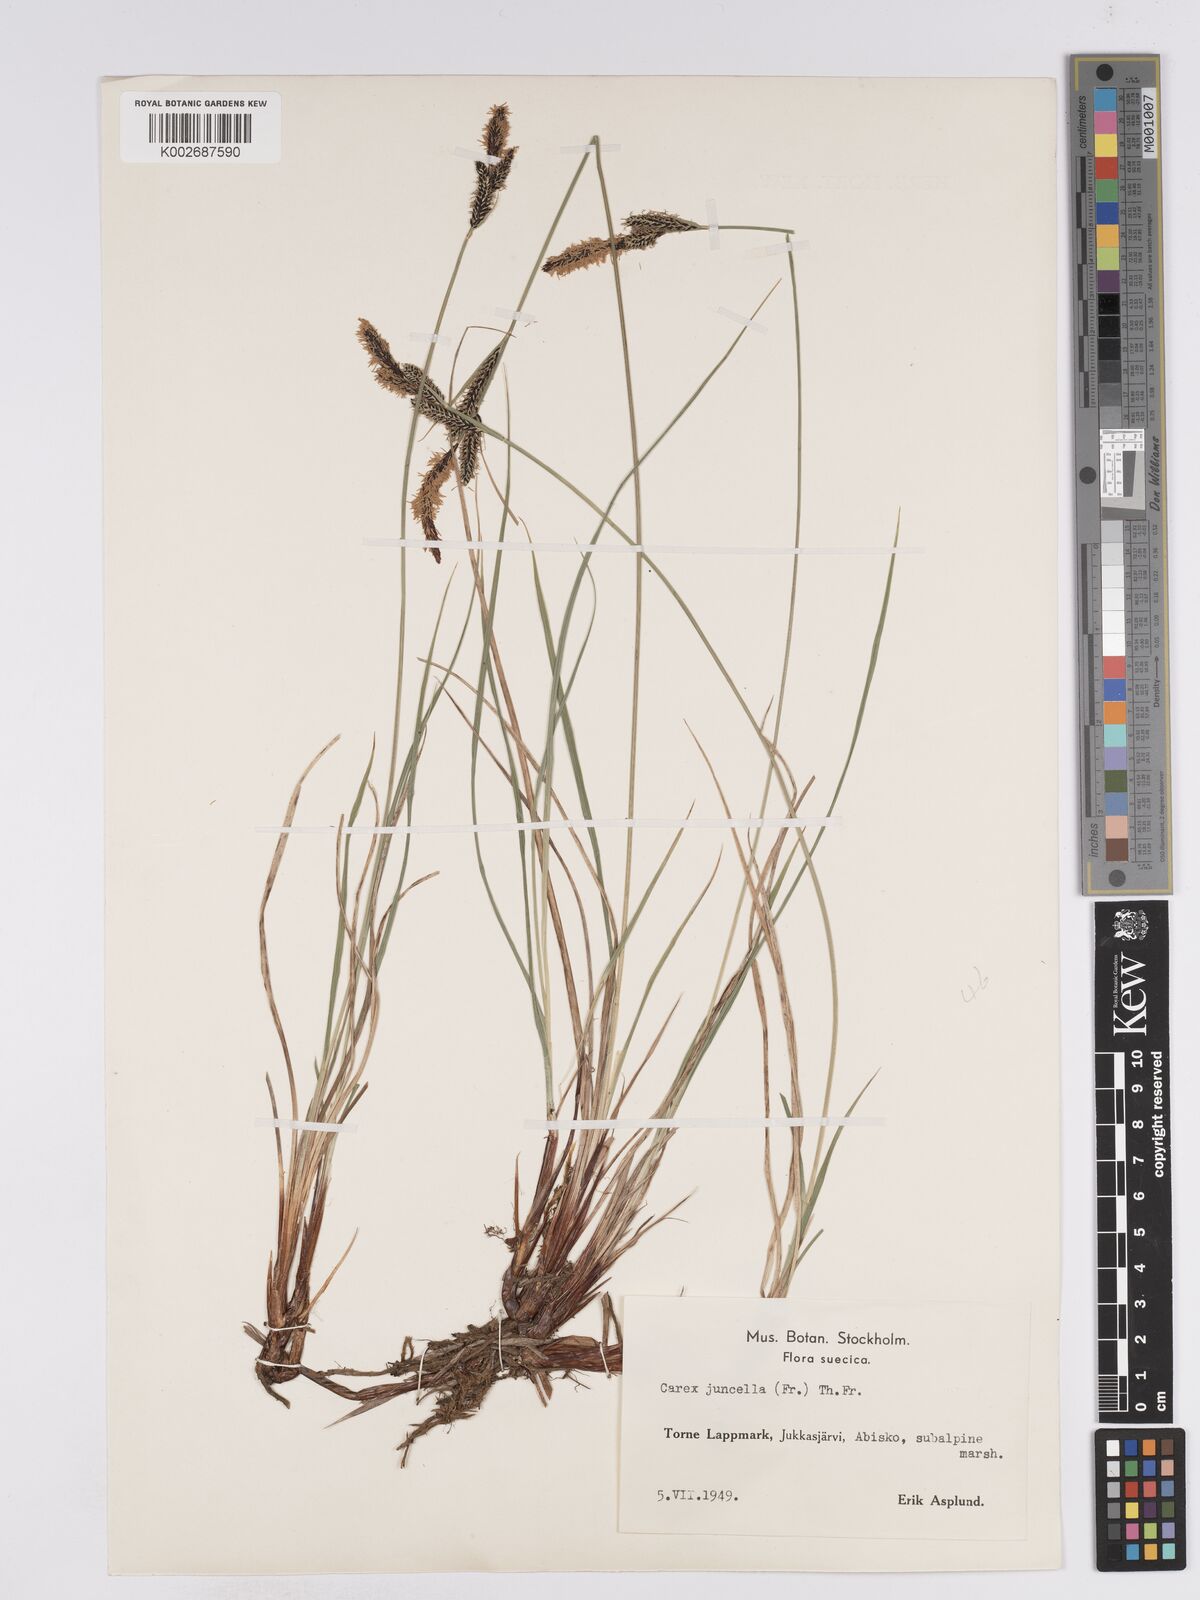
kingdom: Plantae
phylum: Tracheophyta
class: Liliopsida
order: Poales
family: Cyperaceae
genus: Carex
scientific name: Carex
